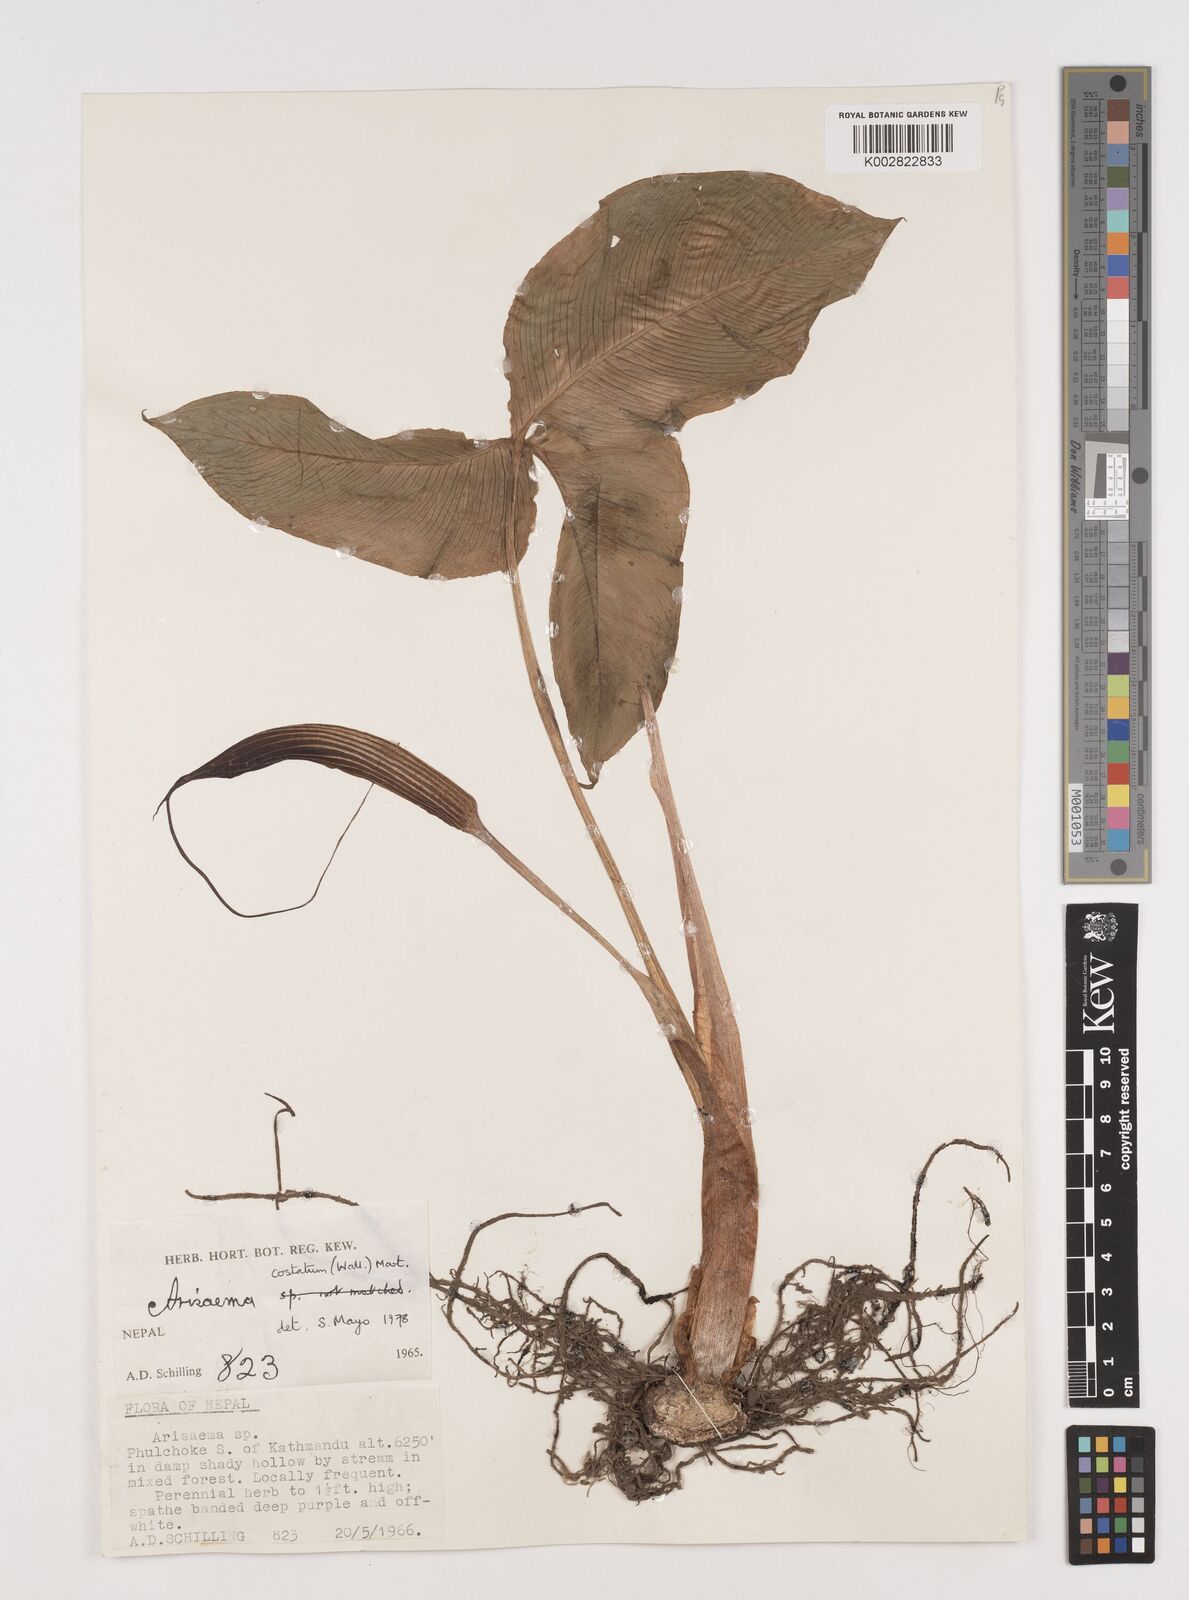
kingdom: Plantae
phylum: Tracheophyta
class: Liliopsida
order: Alismatales
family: Araceae
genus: Arisaema
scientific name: Arisaema costatum
